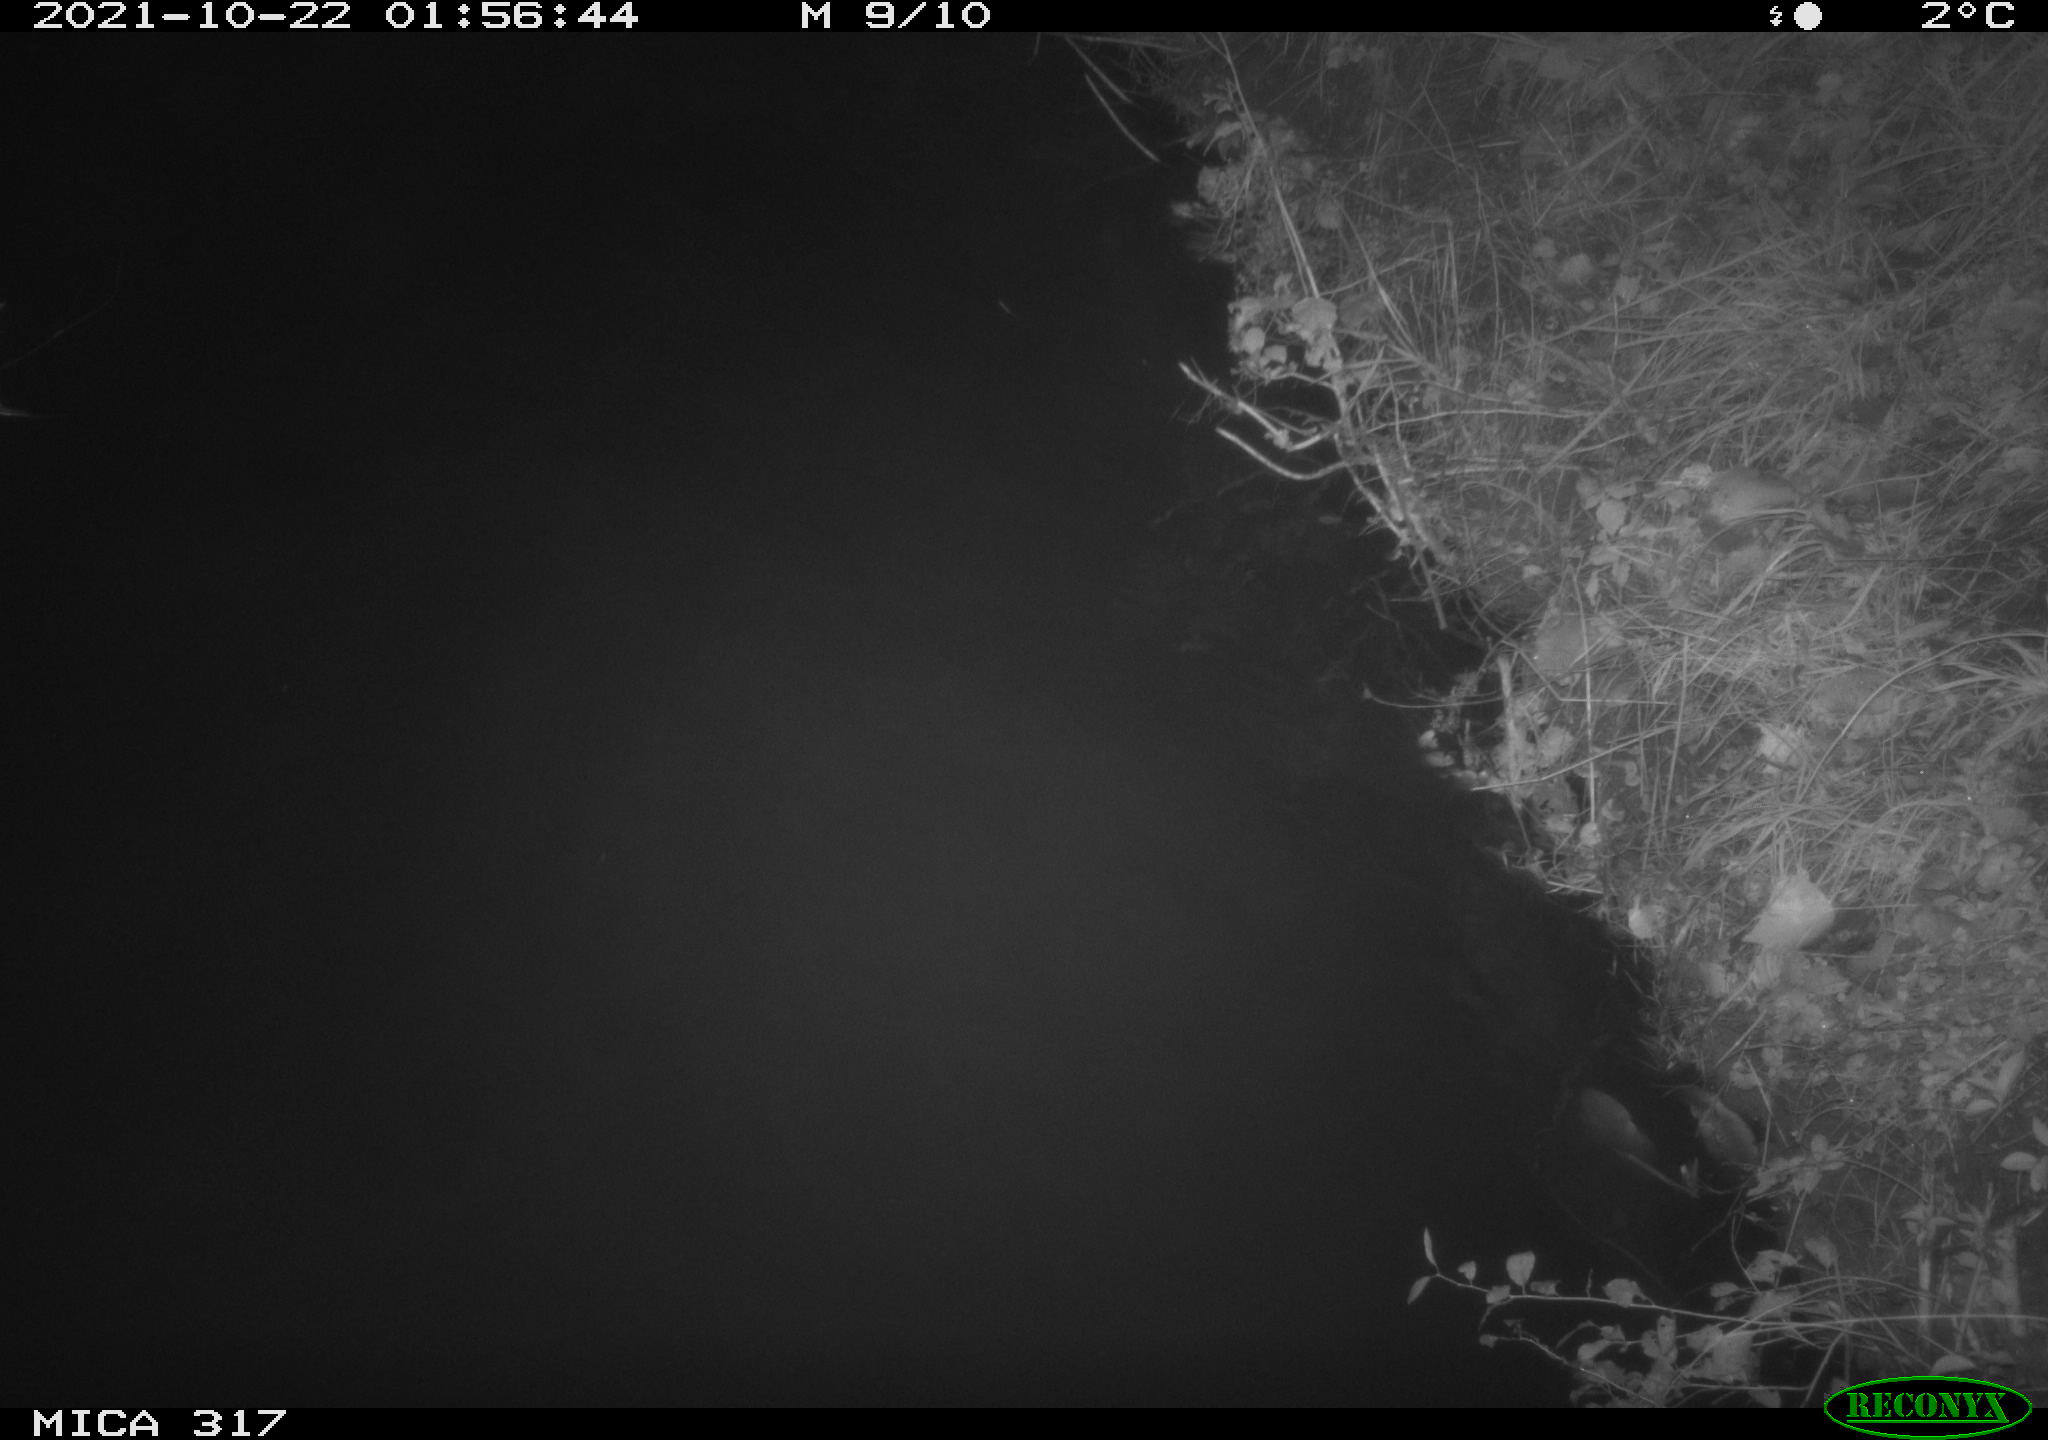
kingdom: Animalia
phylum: Chordata
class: Aves
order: Anseriformes
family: Anatidae
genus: Anas
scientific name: Anas platyrhynchos
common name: Mallard
